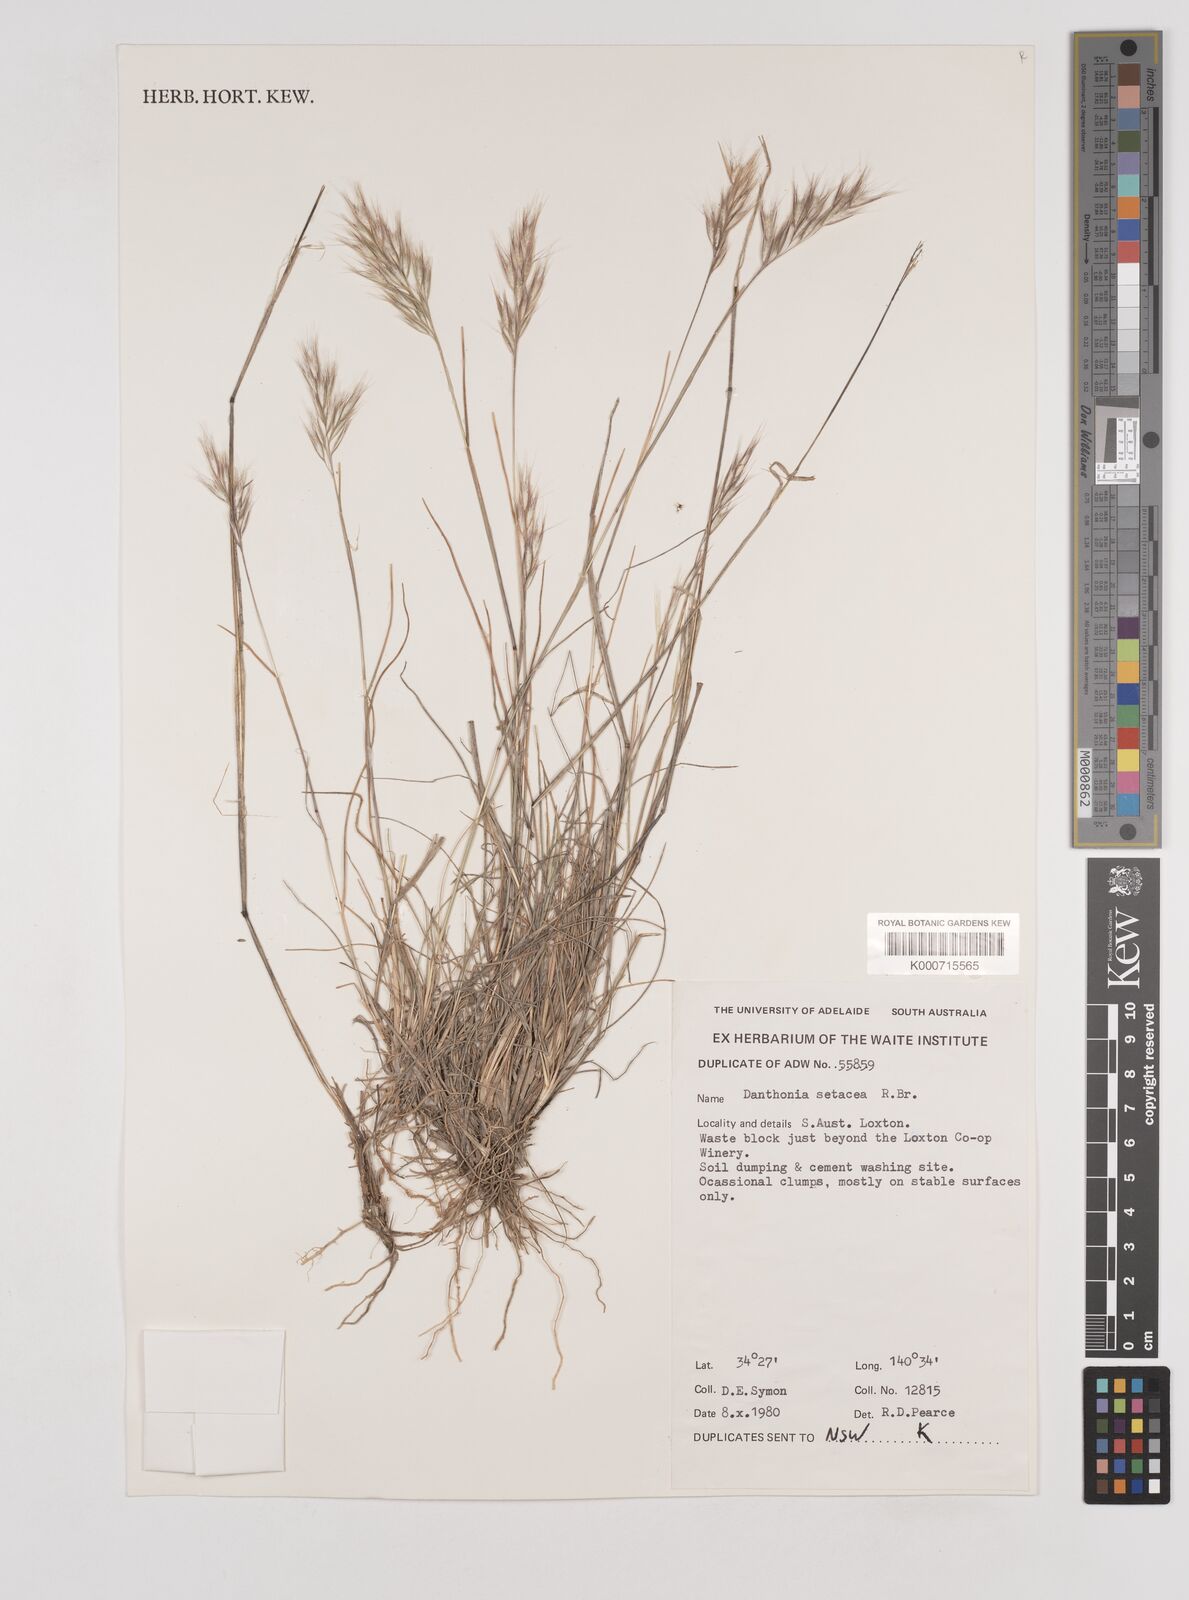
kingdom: Plantae
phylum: Tracheophyta
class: Liliopsida
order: Poales
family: Poaceae
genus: Rytidosperma
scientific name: Rytidosperma setaceum
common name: Small-flower wallaby grass
